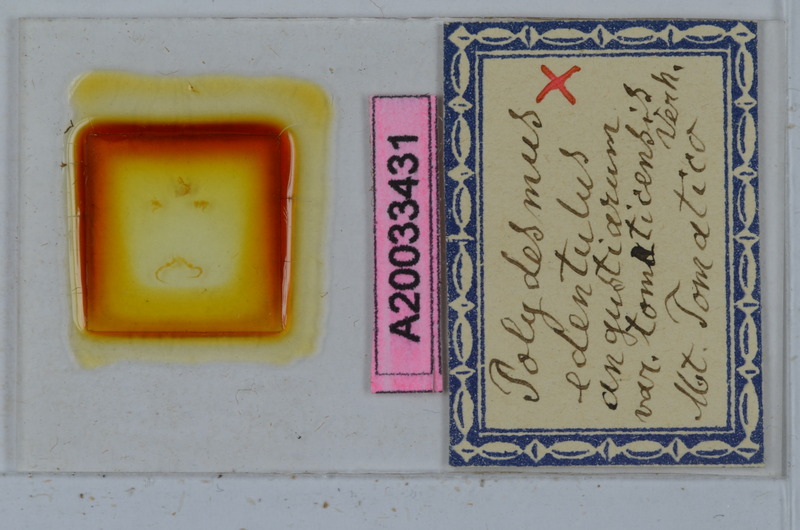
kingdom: Animalia
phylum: Arthropoda
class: Diplopoda
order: Polydesmida
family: Polydesmidae
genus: Polydesmus
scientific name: Polydesmus edentulus
